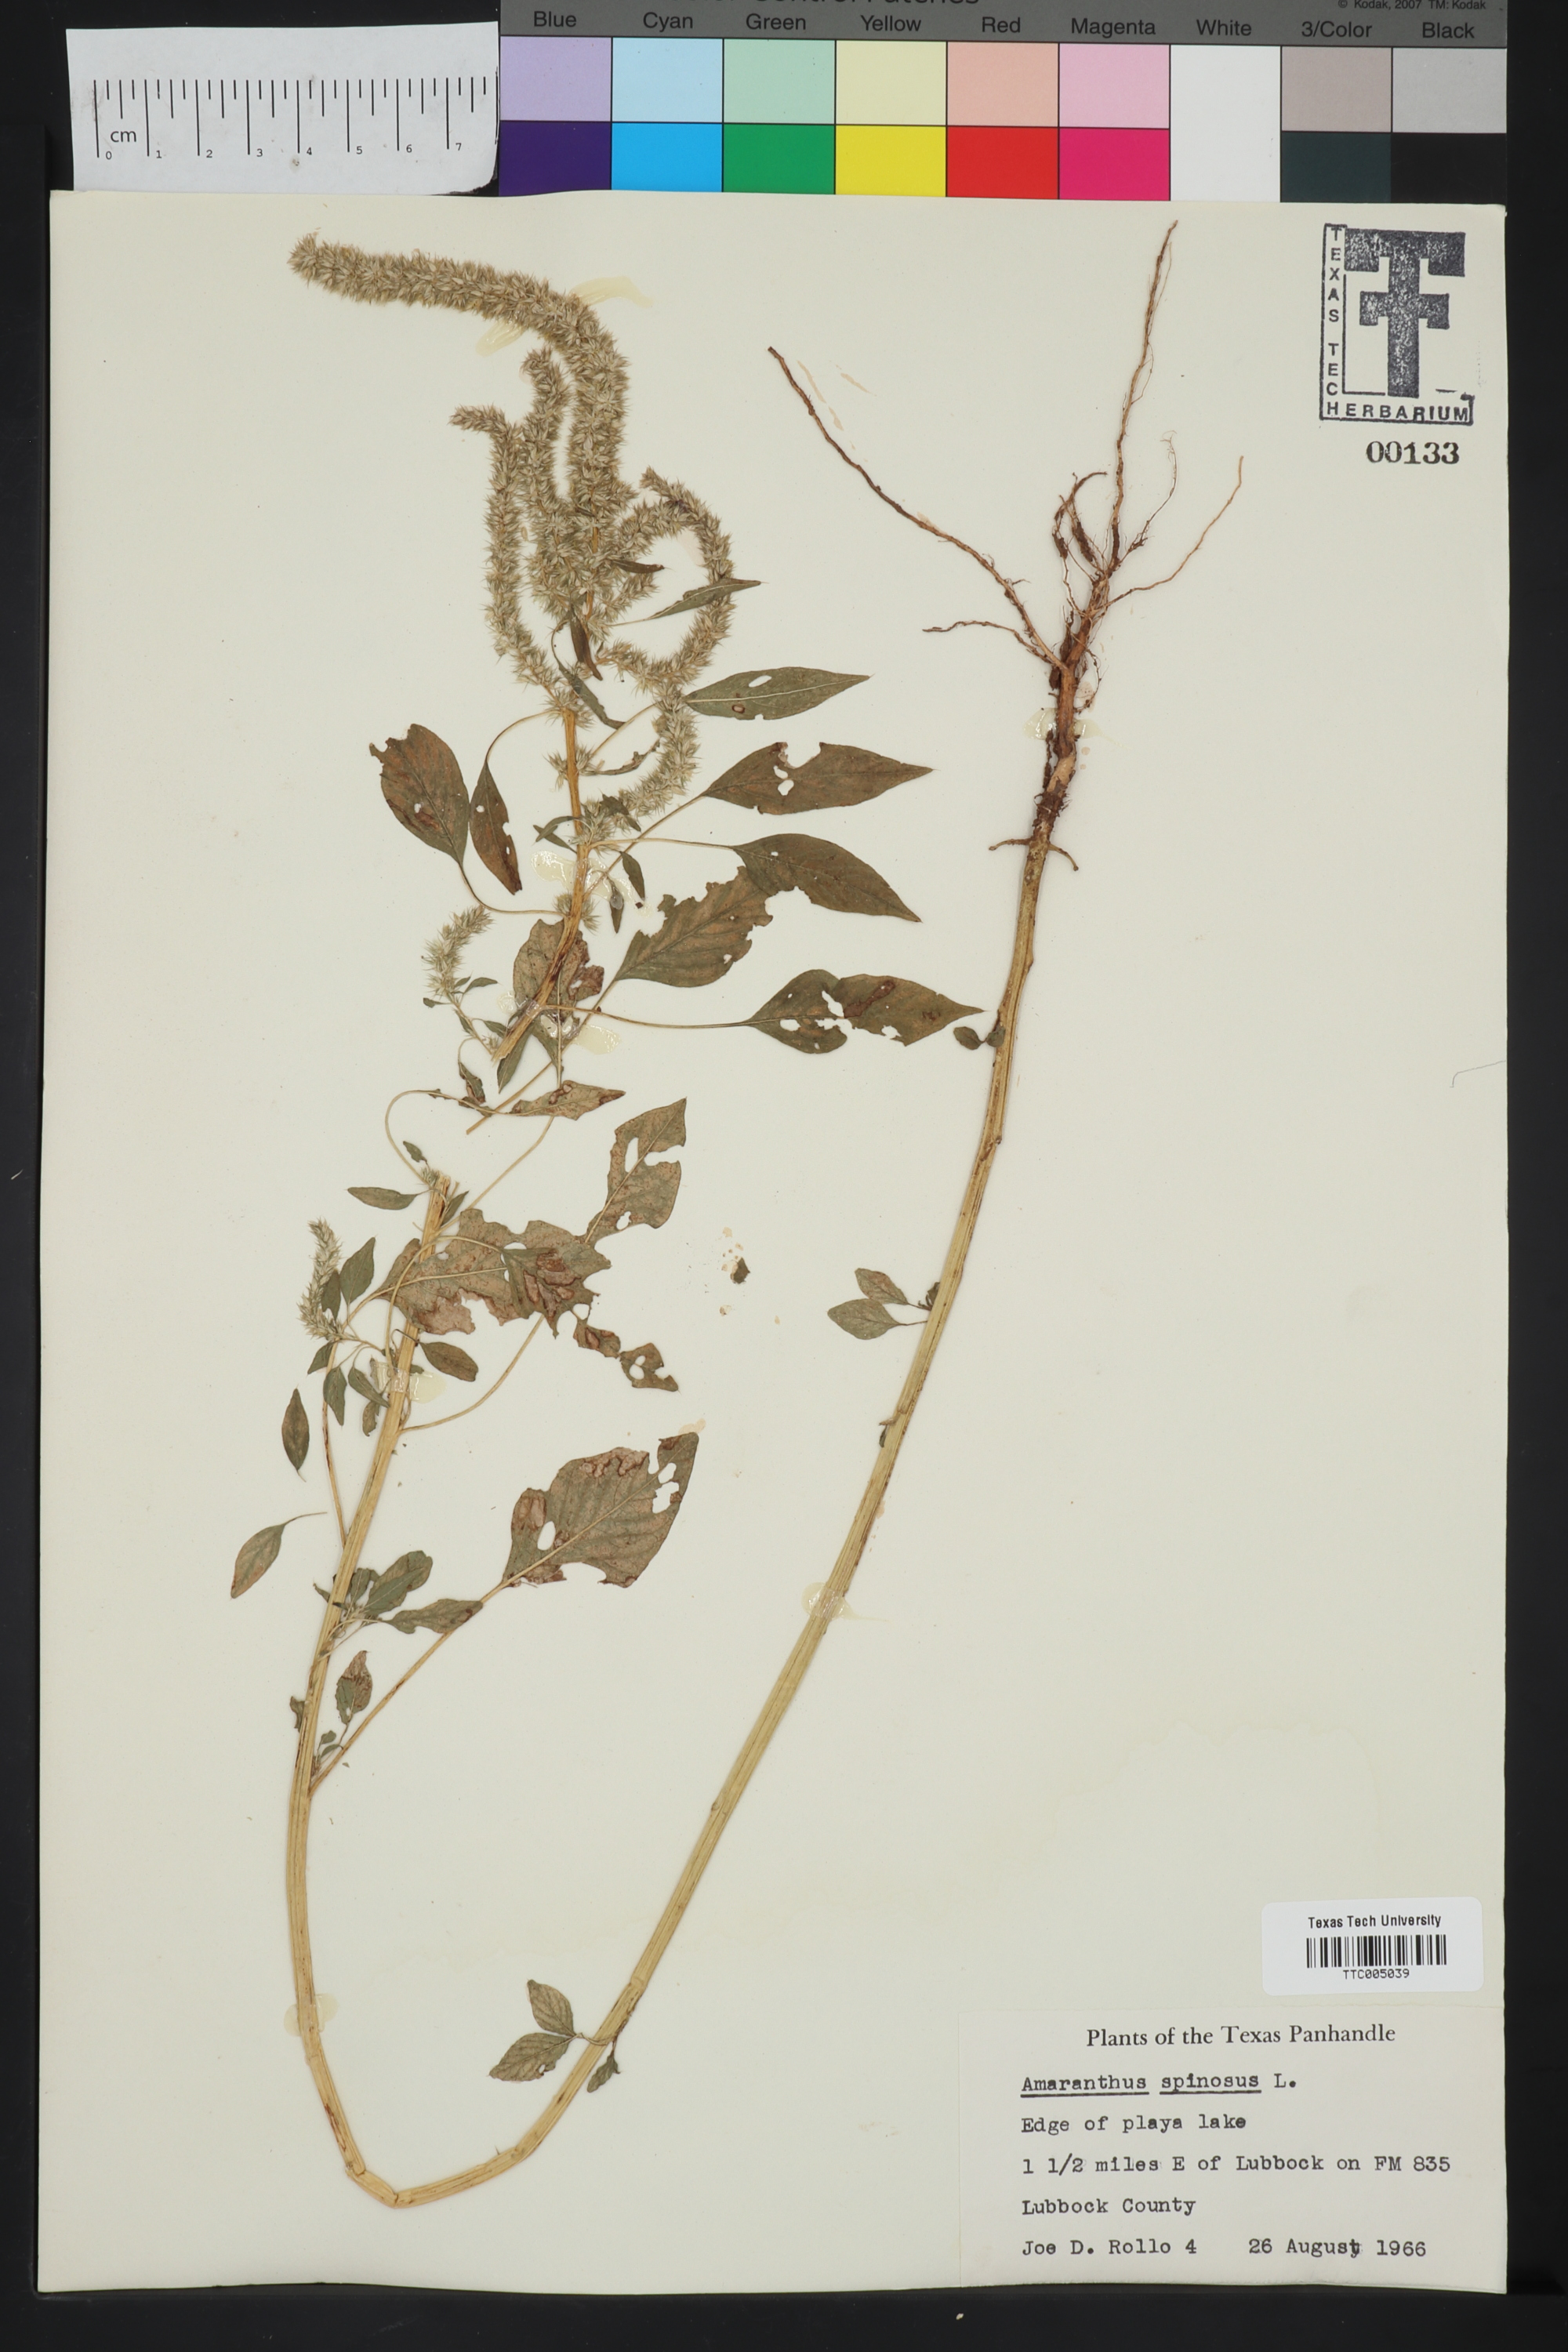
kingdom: Plantae
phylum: Tracheophyta
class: Magnoliopsida
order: Caryophyllales
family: Amaranthaceae
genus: Amaranthus
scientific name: Amaranthus spinosus
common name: Spiny amaranth
